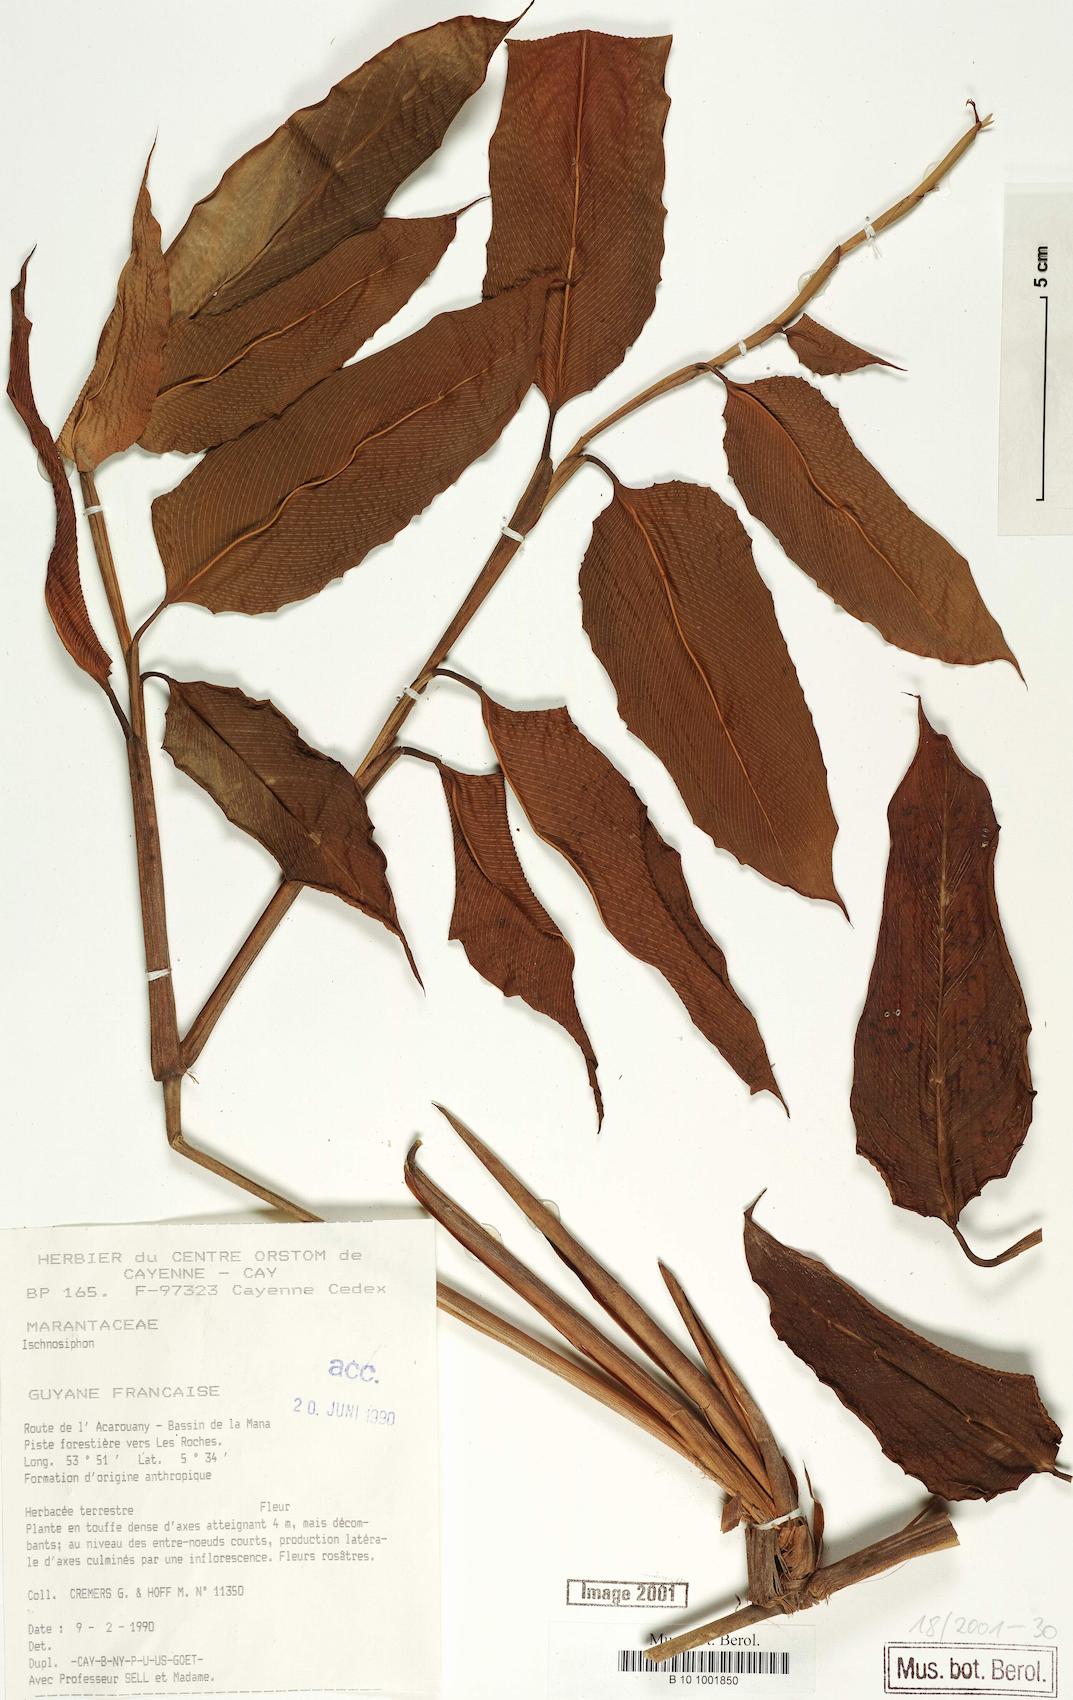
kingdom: Plantae
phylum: Tracheophyta
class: Liliopsida
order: Zingiberales
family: Marantaceae
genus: Ischnosiphon
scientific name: Ischnosiphon
